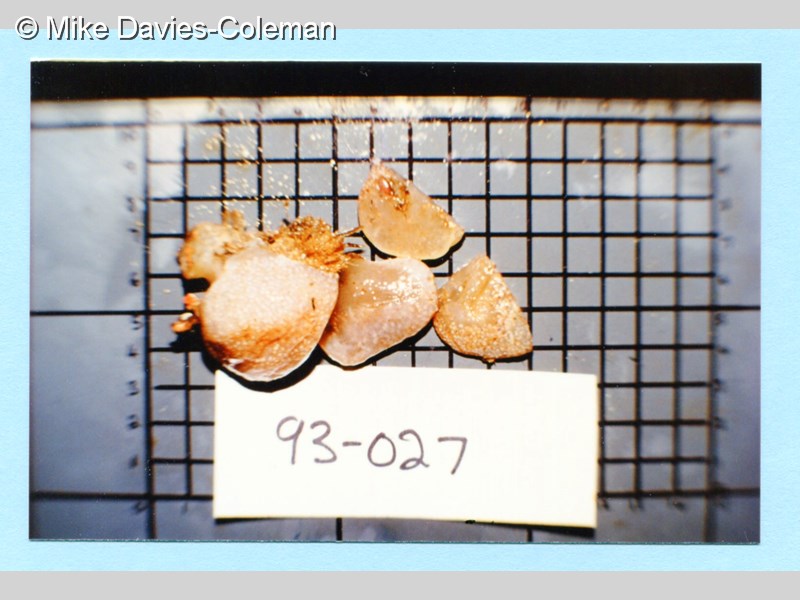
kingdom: Animalia
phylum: Chordata
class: Ascidiacea
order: Aplousobranchia
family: Pseudodistomidae
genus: Pseudodistoma
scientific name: Pseudodistoma
